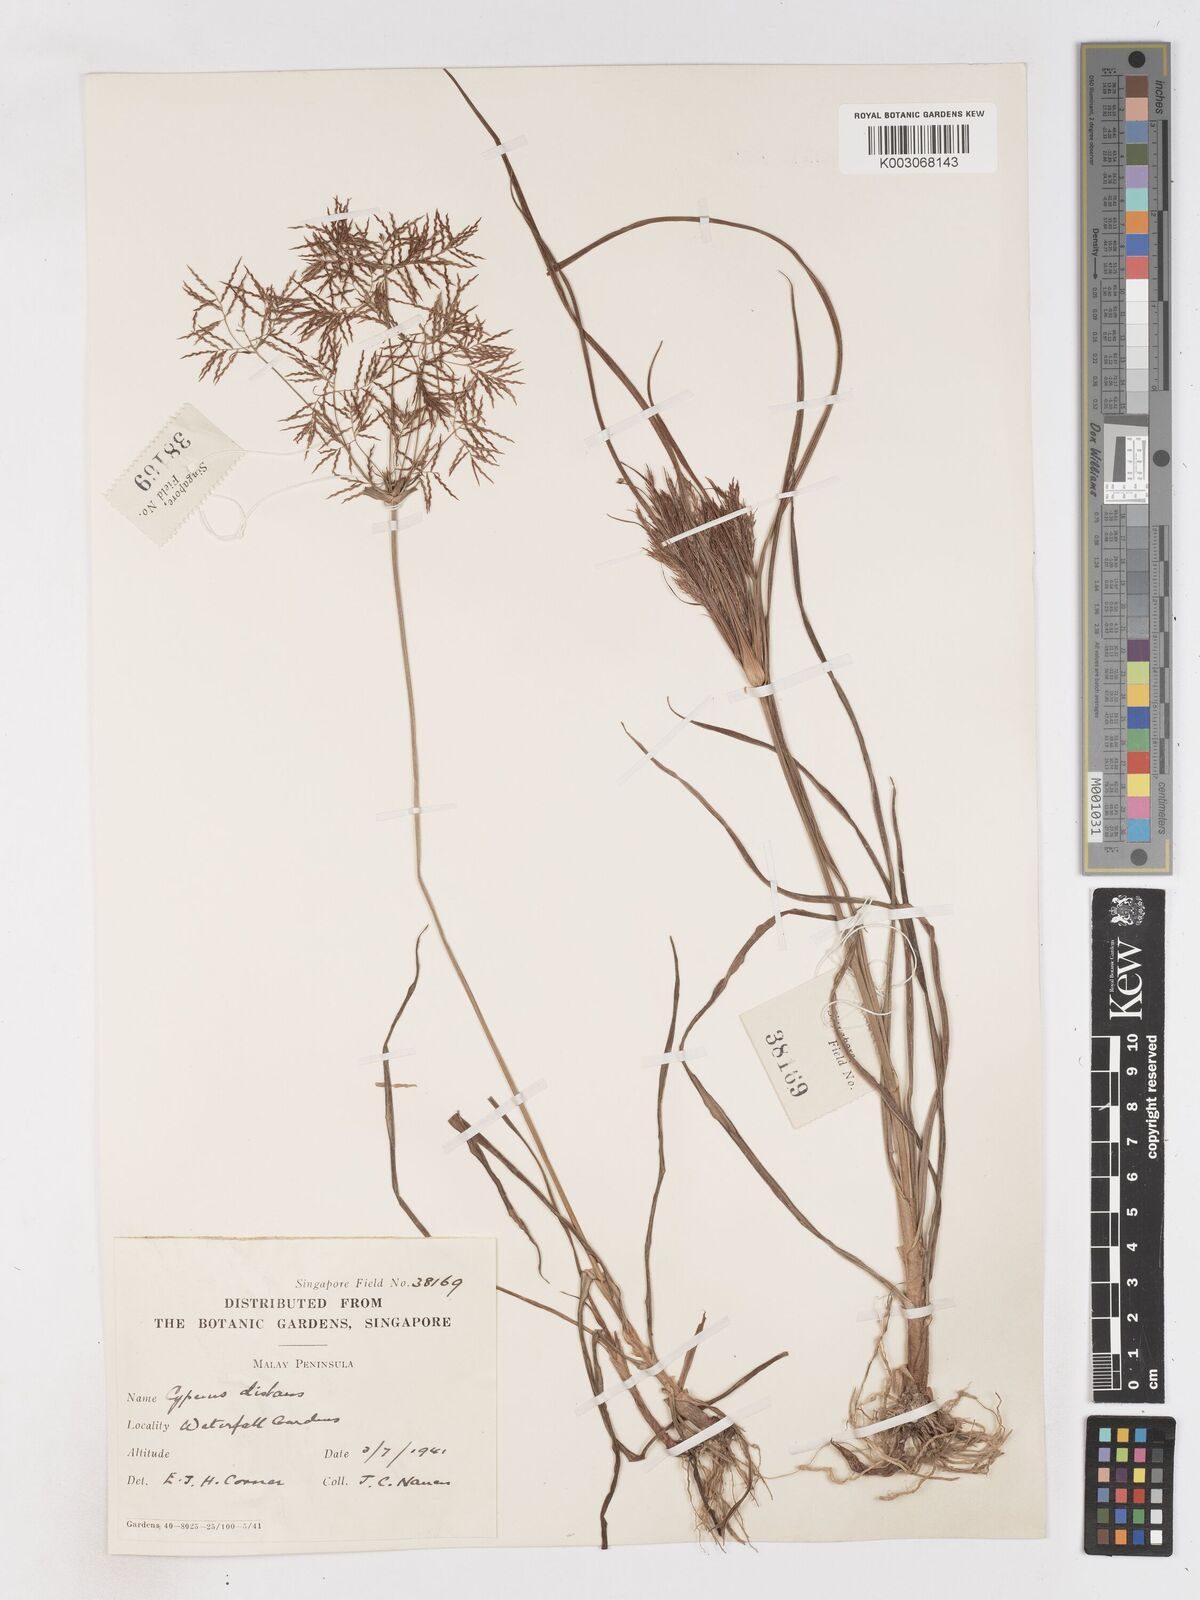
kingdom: Plantae
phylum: Tracheophyta
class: Liliopsida
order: Poales
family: Cyperaceae
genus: Cyperus
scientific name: Cyperus distans
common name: Slender cyperus
